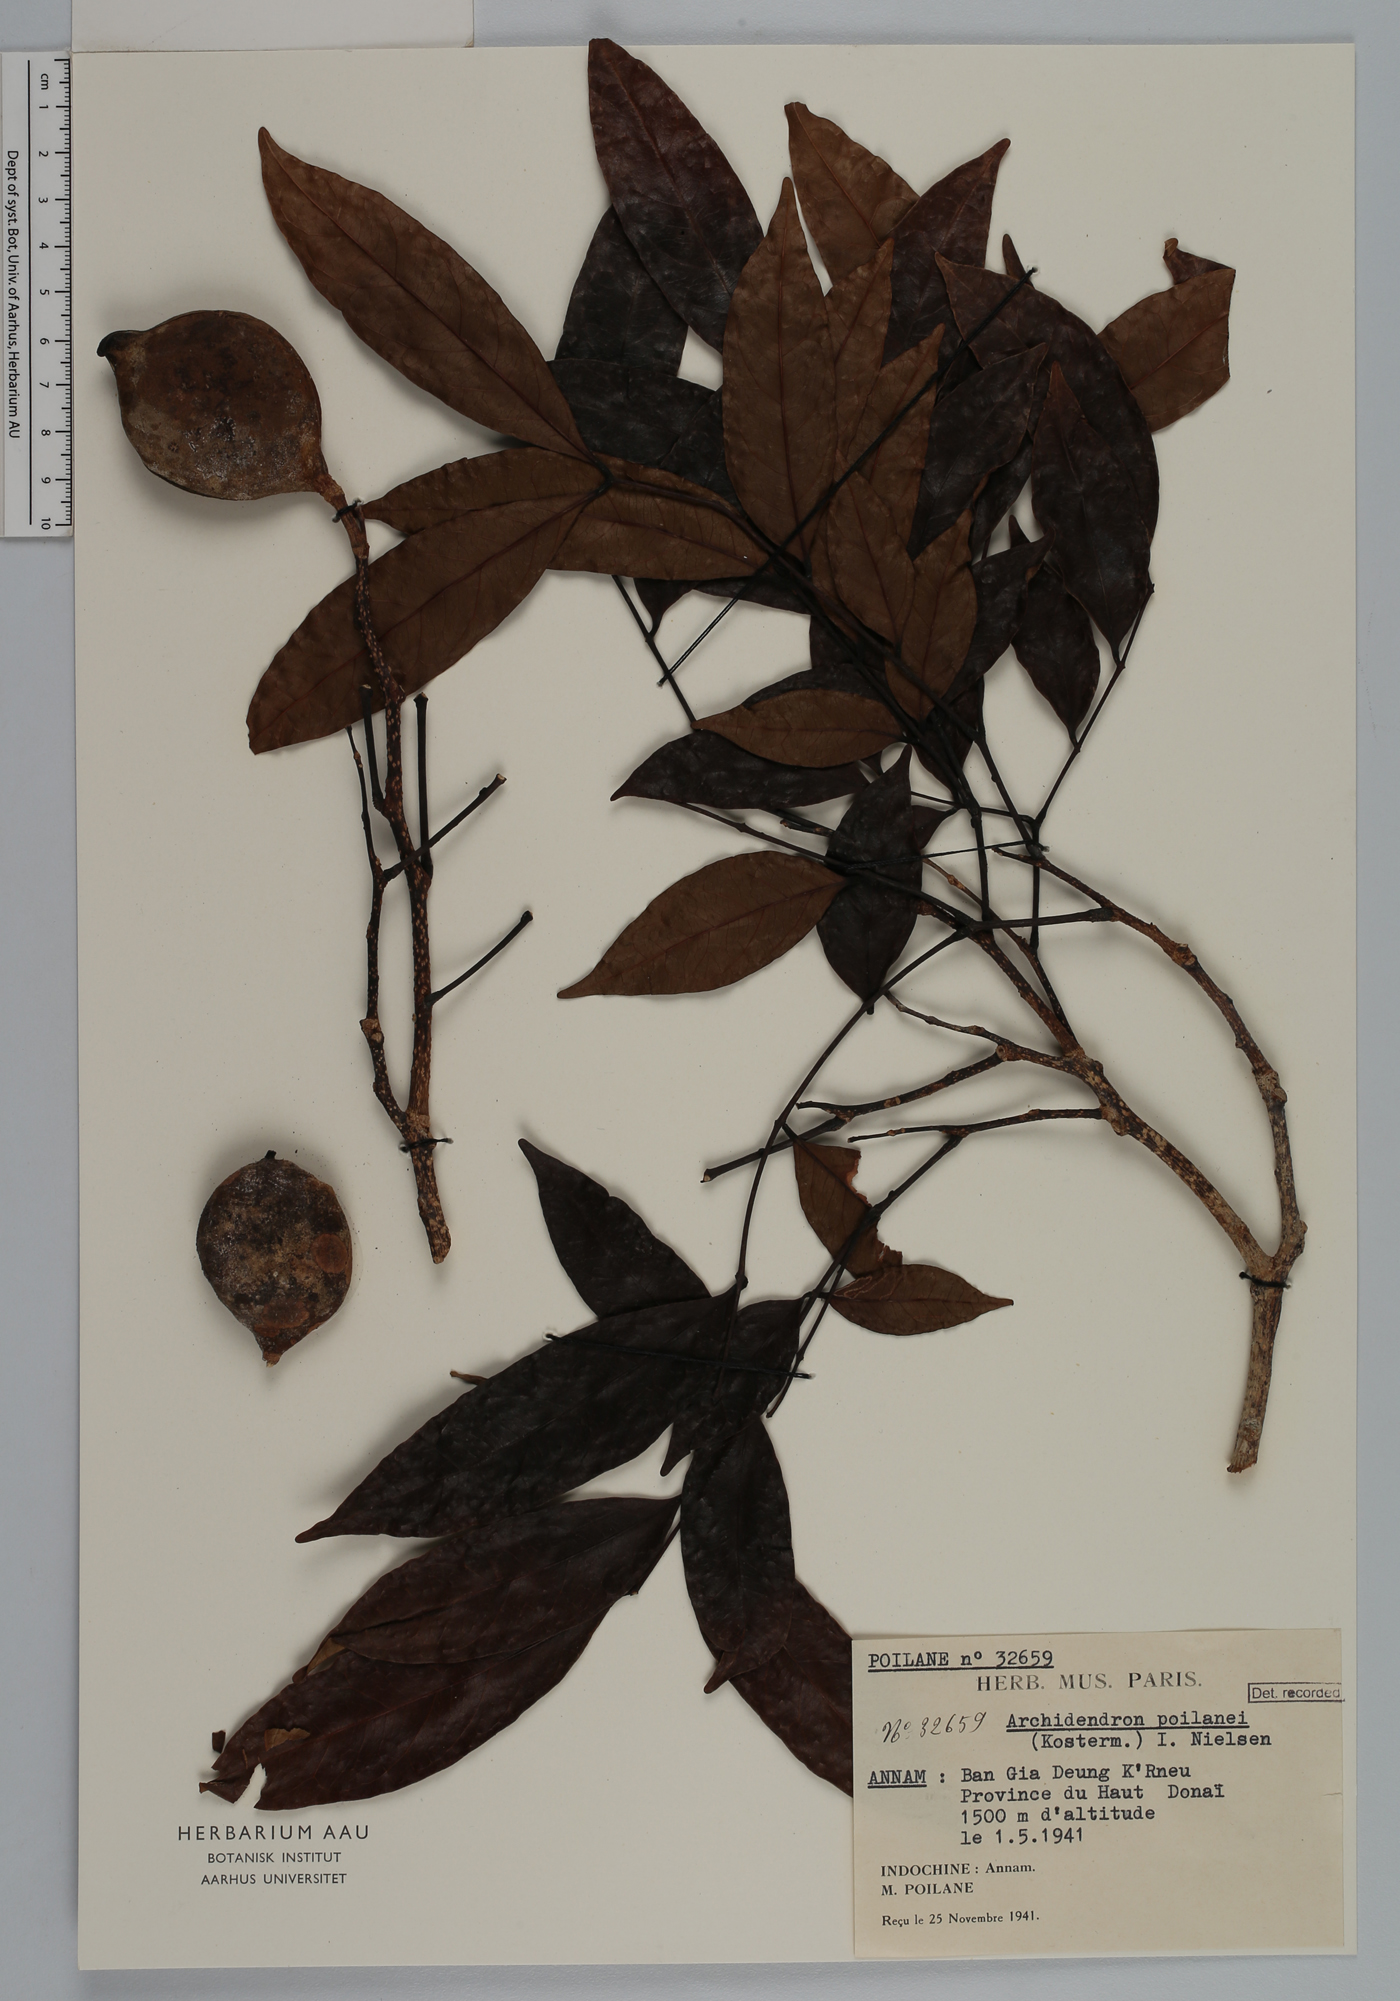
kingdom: Plantae
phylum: Tracheophyta
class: Magnoliopsida
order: Fabales
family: Fabaceae
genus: Archidendron
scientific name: Archidendron poilanei
